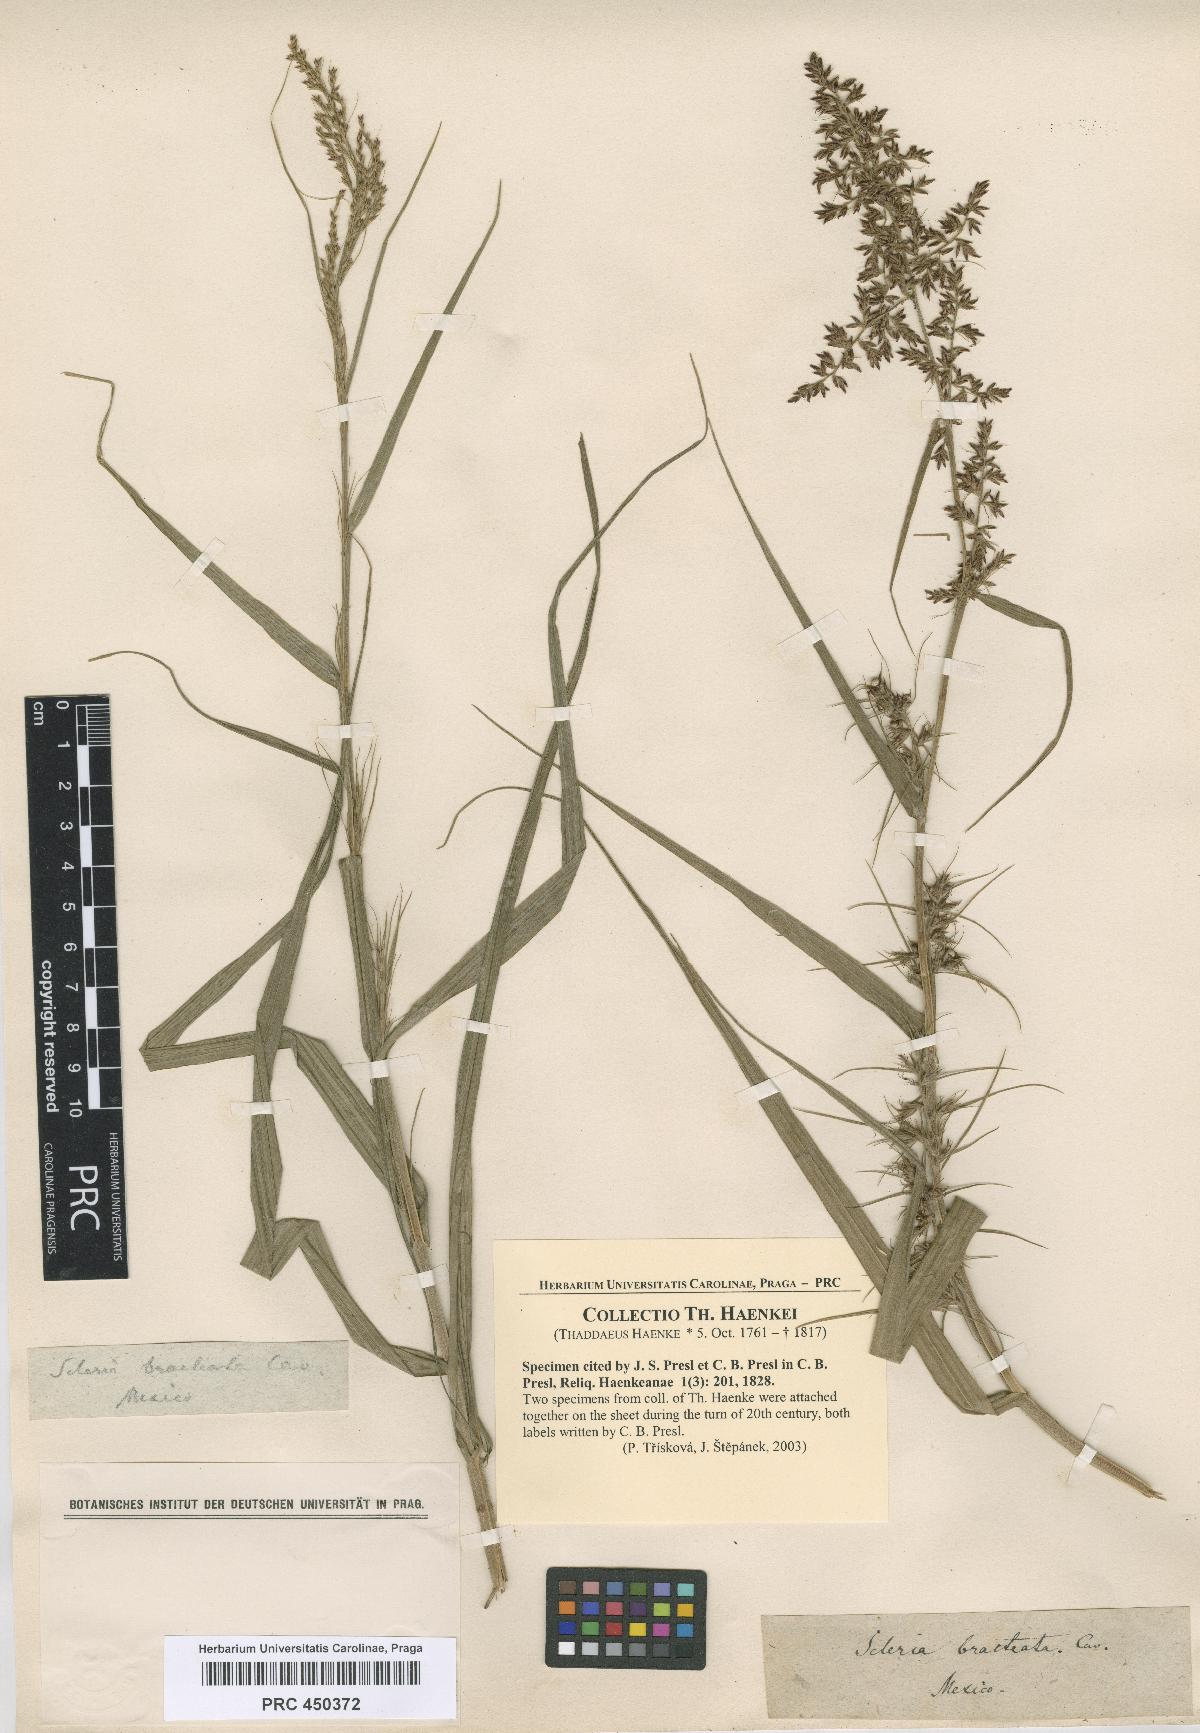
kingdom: Plantae
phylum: Tracheophyta
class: Liliopsida
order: Poales
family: Cyperaceae
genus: Scleria
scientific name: Scleria
